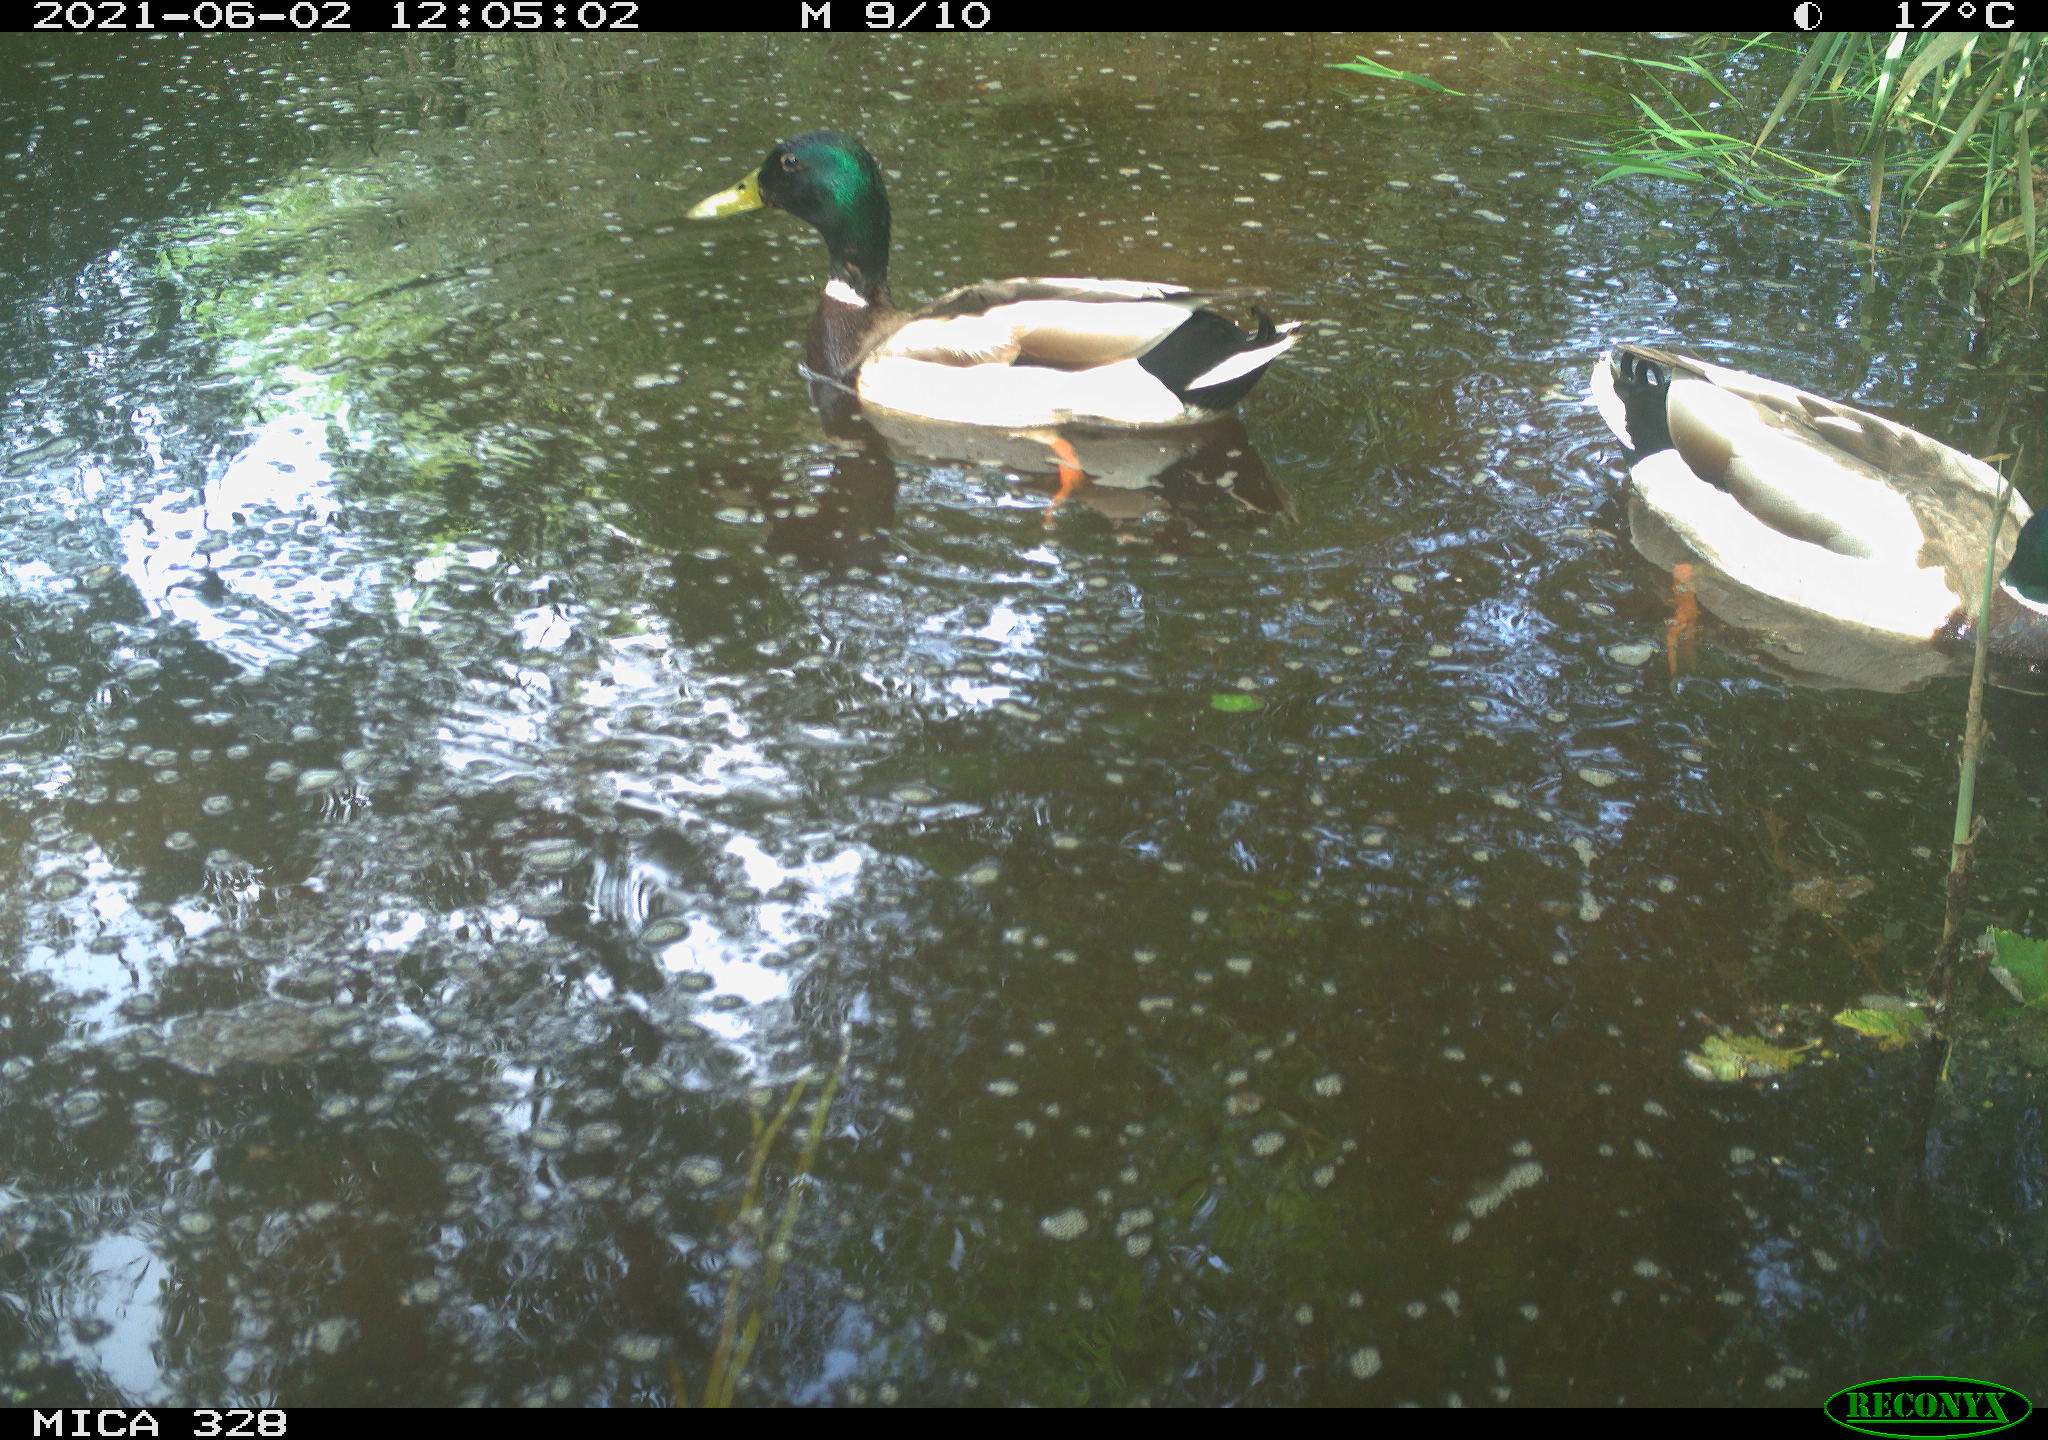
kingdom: Animalia
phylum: Chordata
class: Aves
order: Anseriformes
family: Anatidae
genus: Anas
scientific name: Anas platyrhynchos
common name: Mallard
